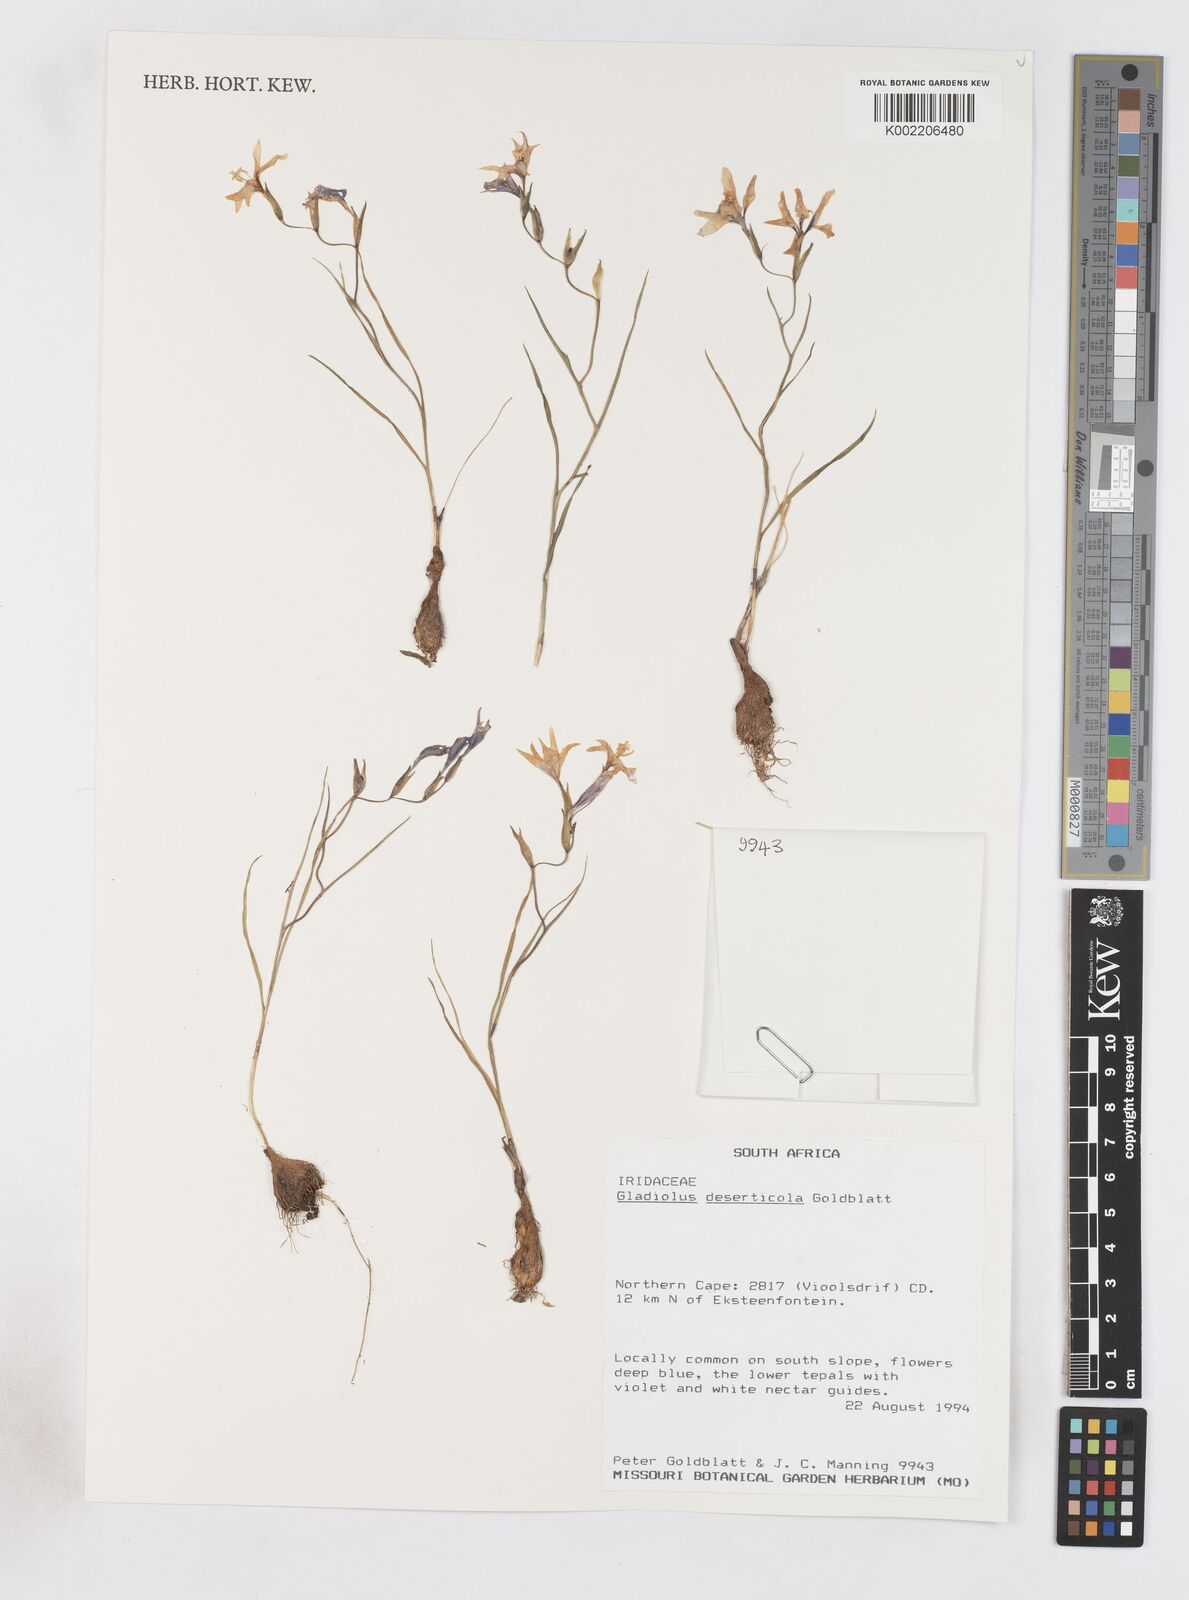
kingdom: Plantae
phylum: Tracheophyta
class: Liliopsida
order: Asparagales
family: Iridaceae
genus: Gladiolus
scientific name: Gladiolus deserticola
